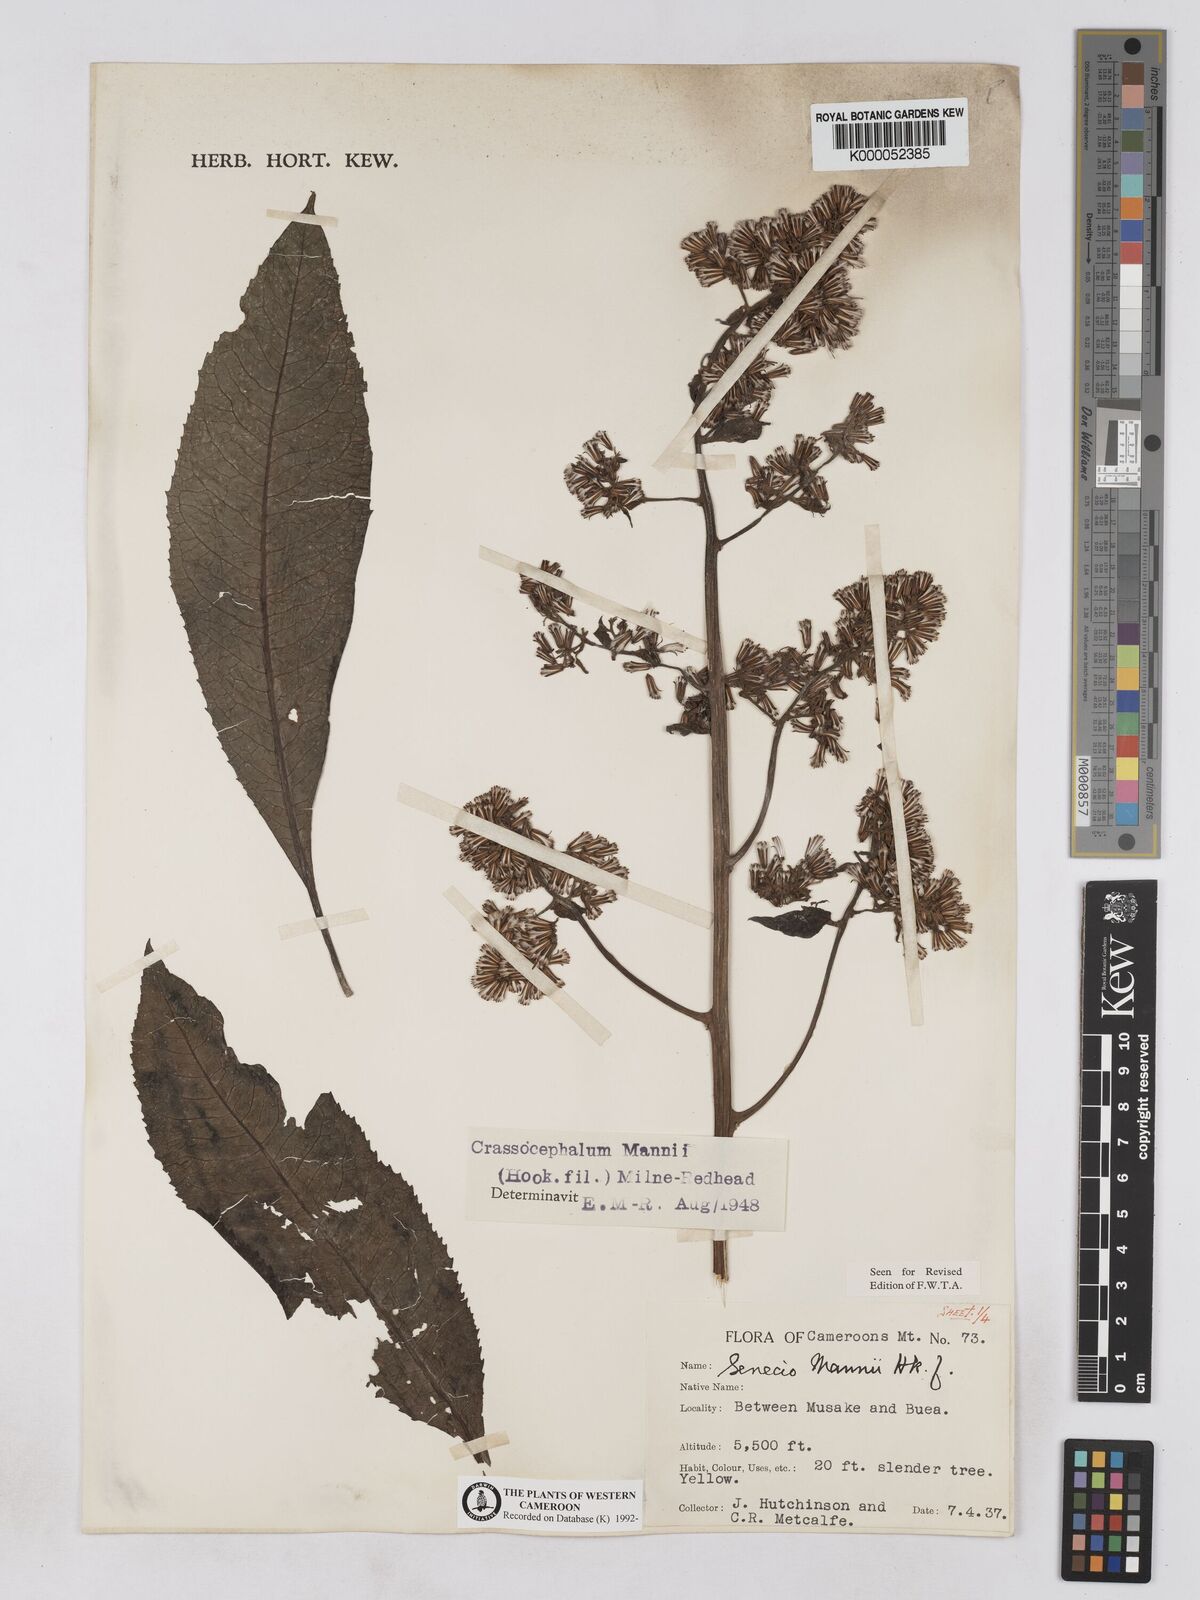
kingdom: Plantae
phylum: Tracheophyta
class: Magnoliopsida
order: Asterales
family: Asteraceae
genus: Solanecio
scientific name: Solanecio mannii
